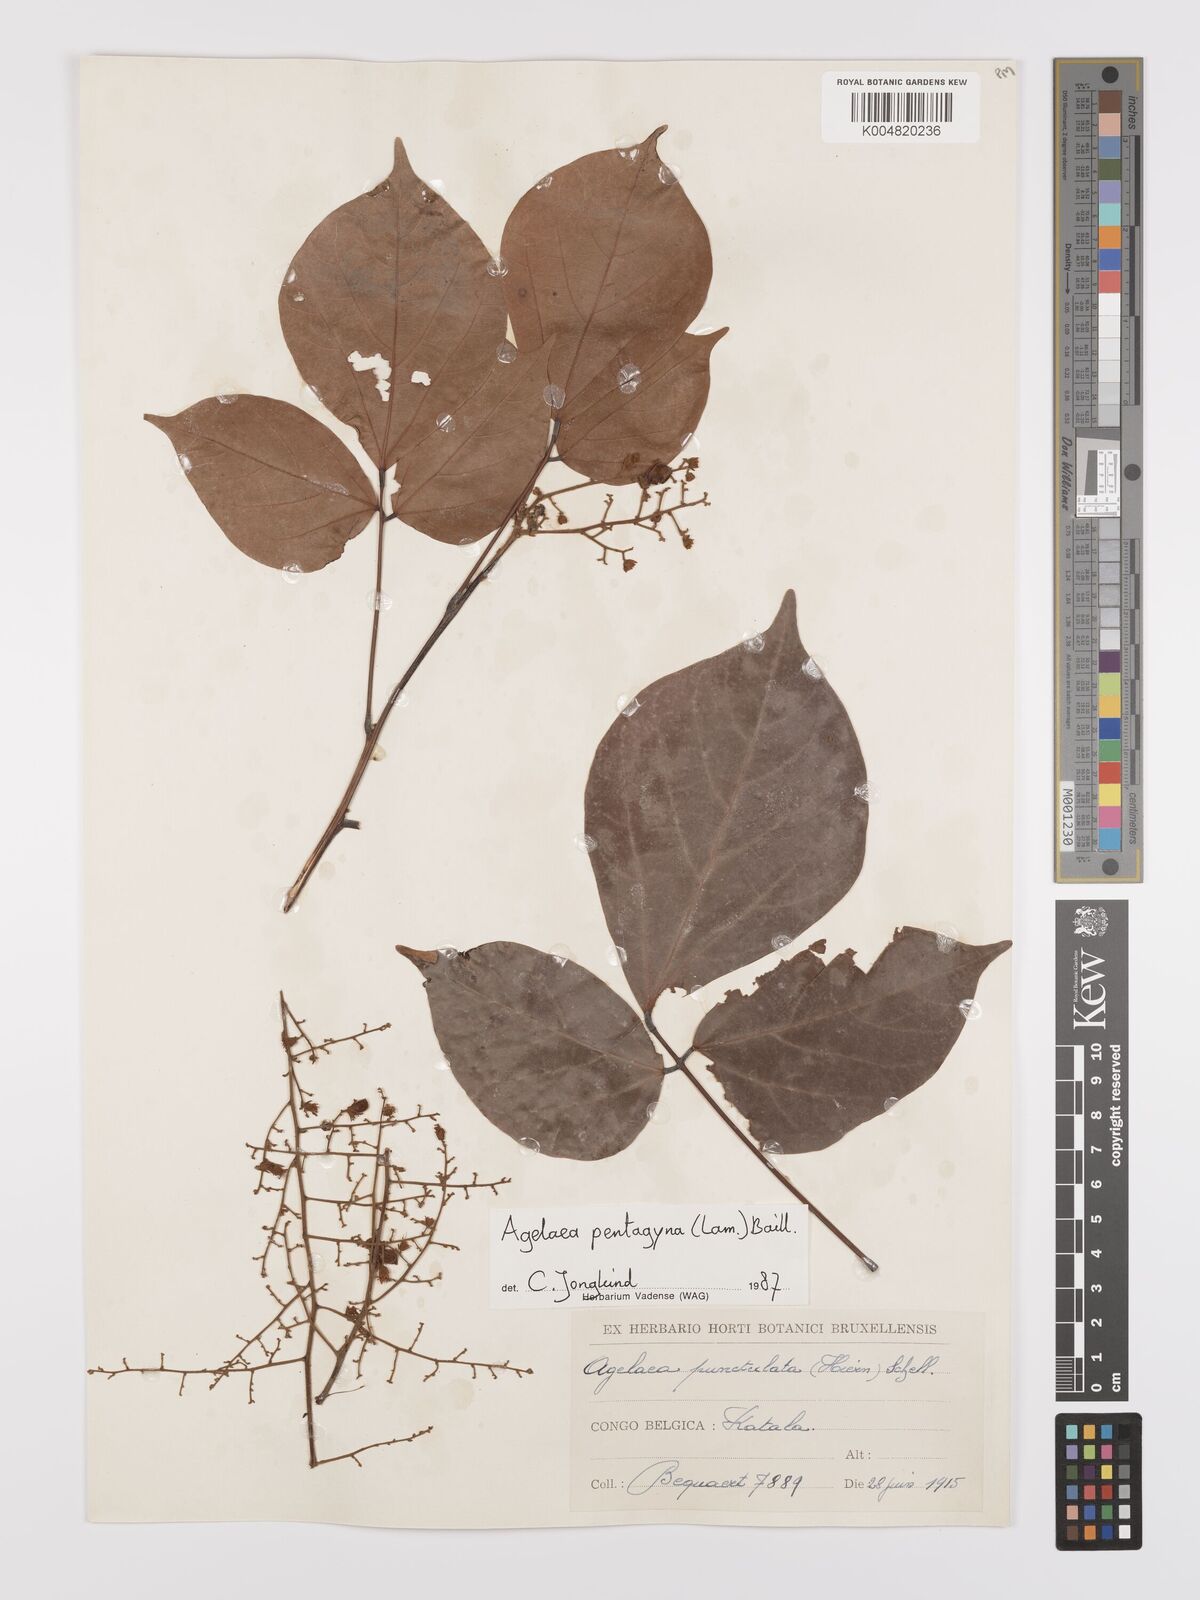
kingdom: Plantae
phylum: Tracheophyta
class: Magnoliopsida
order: Oxalidales
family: Connaraceae
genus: Agelaea
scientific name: Agelaea pentagyna
